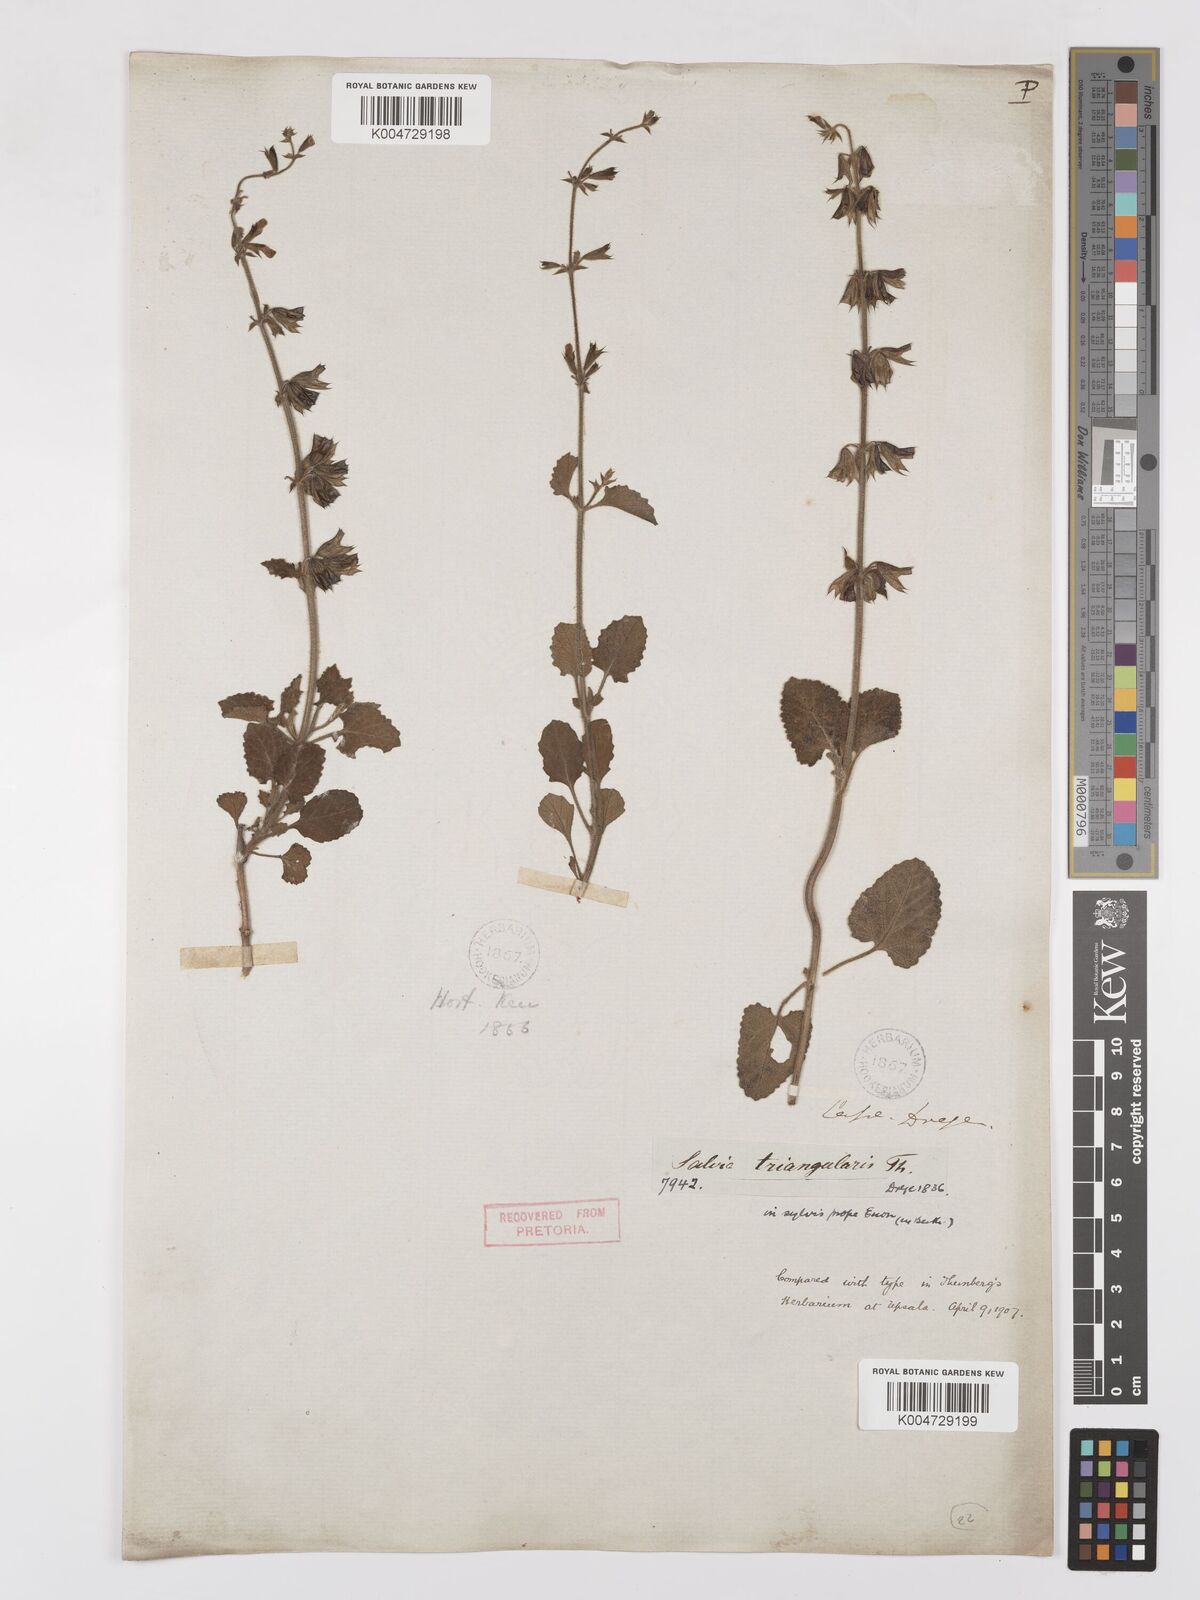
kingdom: Plantae
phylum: Tracheophyta
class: Magnoliopsida
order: Lamiales
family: Lamiaceae
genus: Salvia
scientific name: Salvia triangularis
